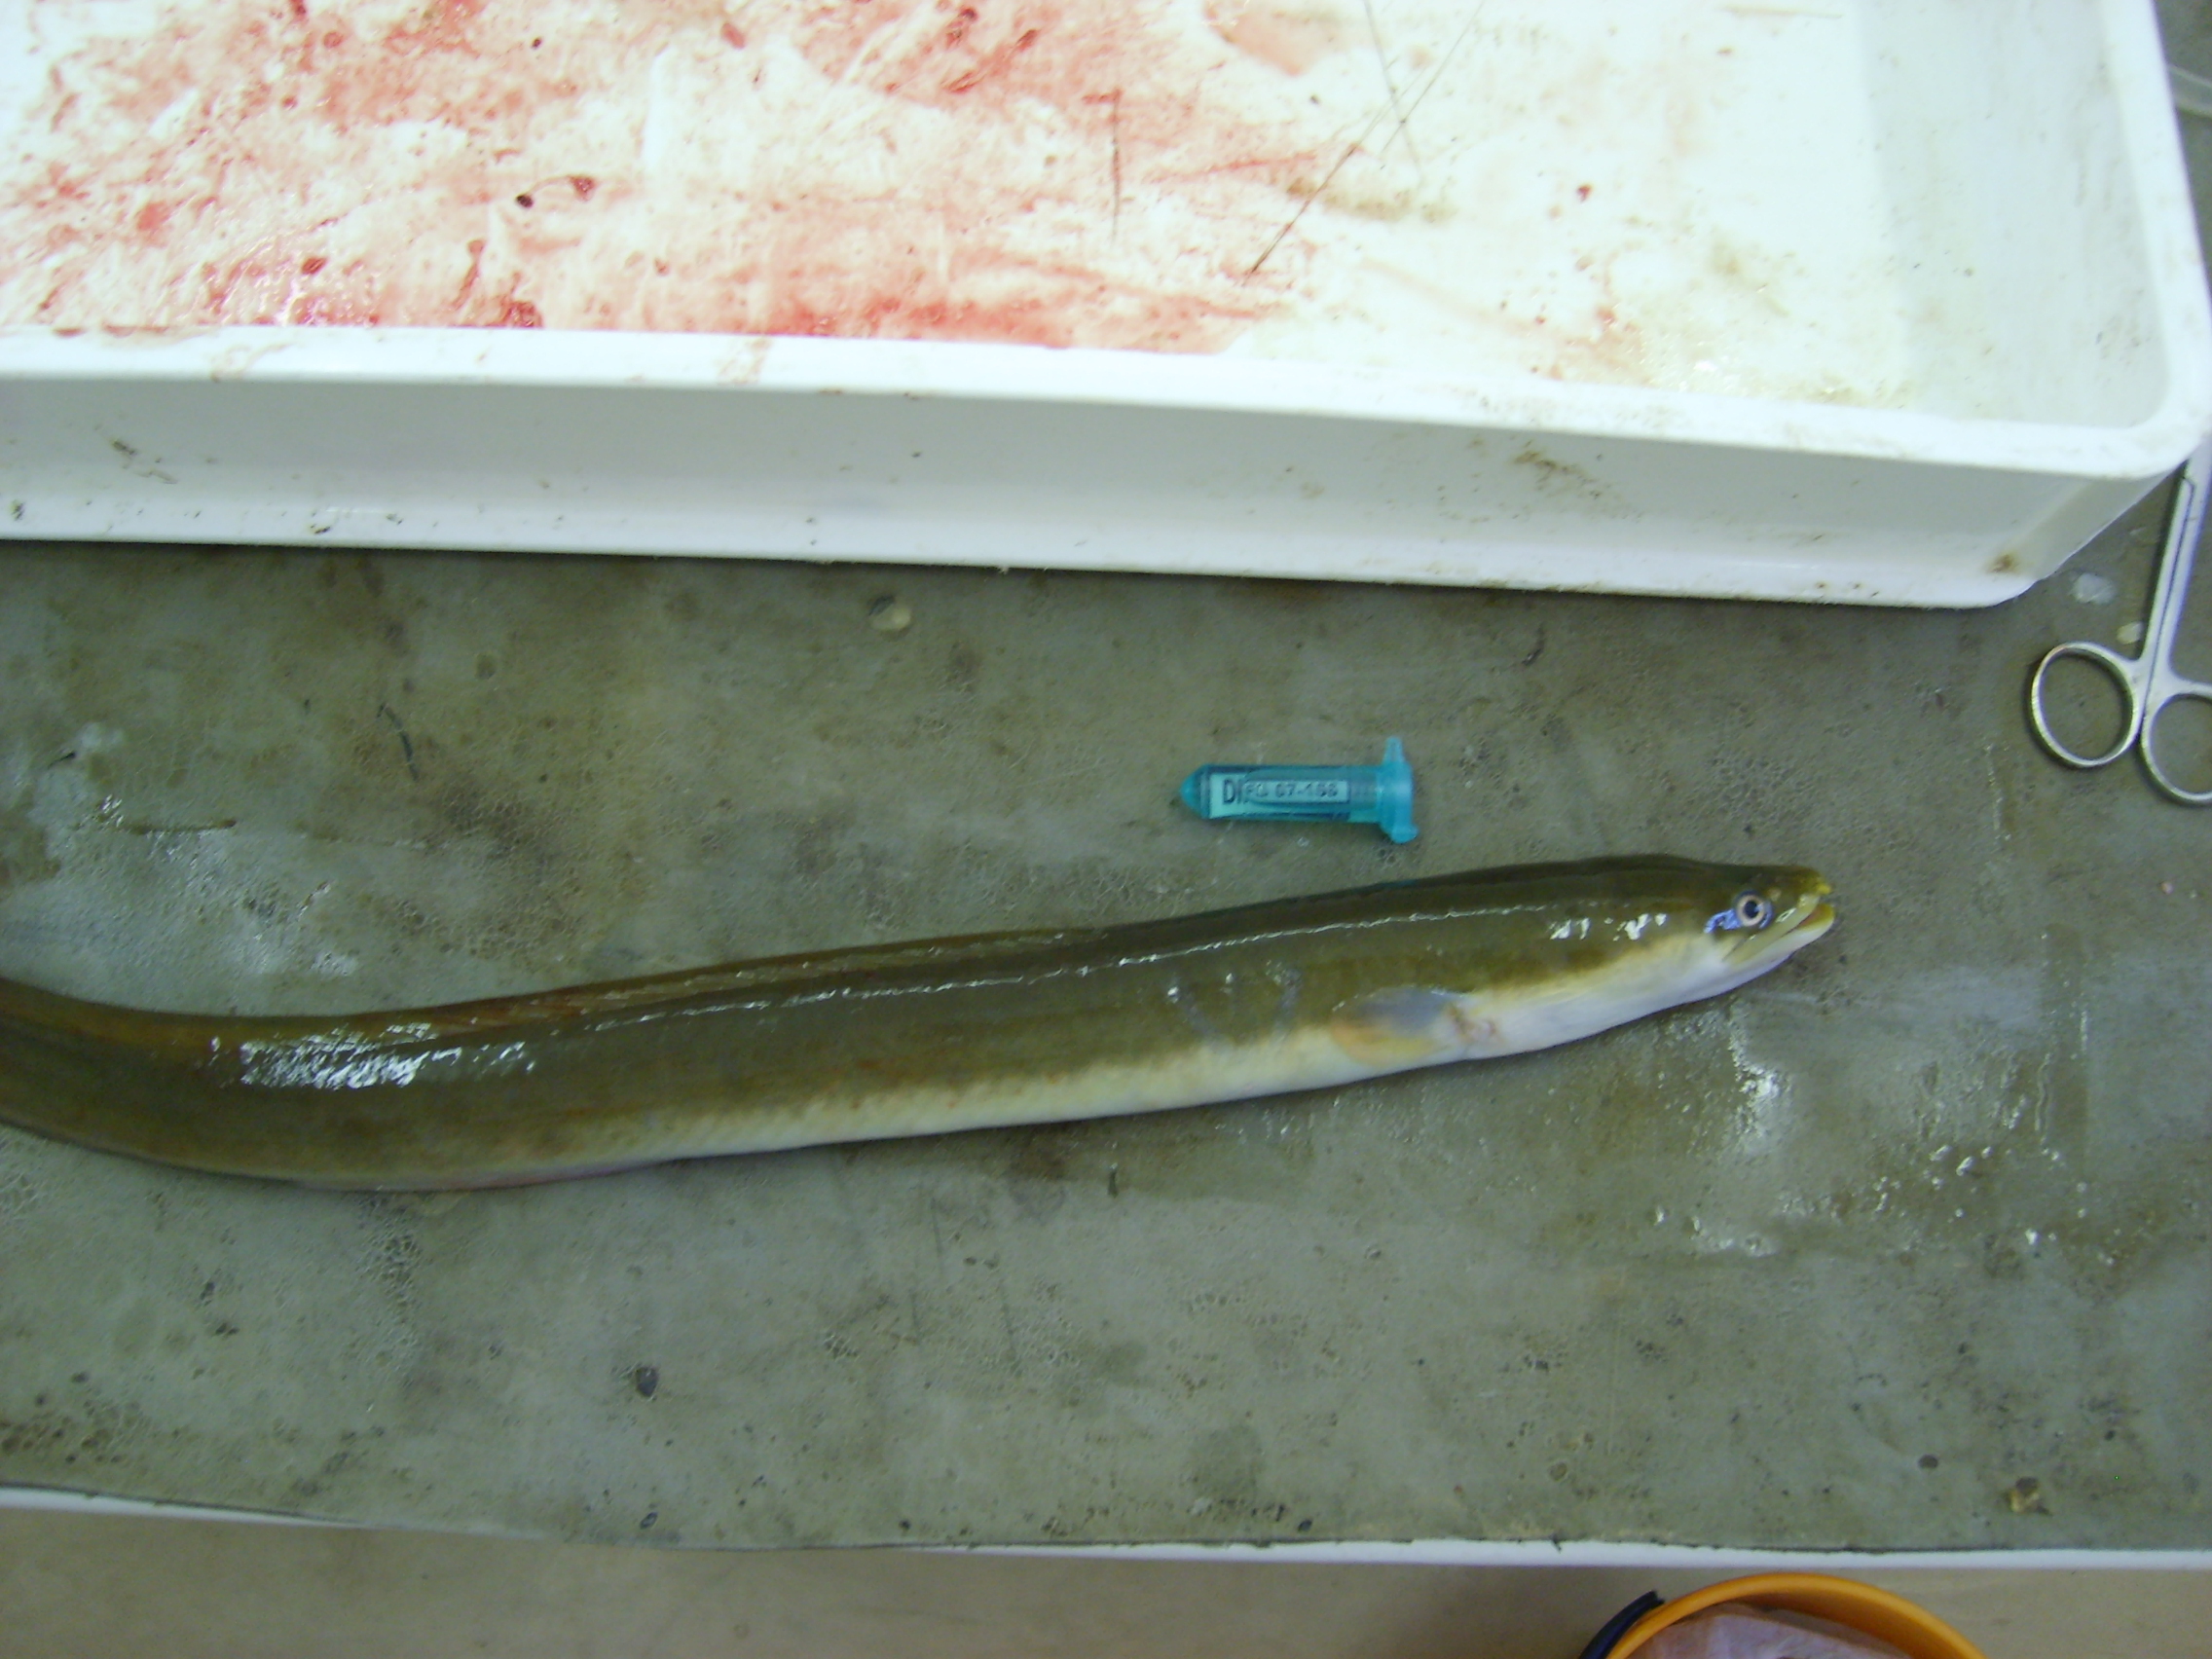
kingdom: Animalia
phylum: Chordata
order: Anguilliformes
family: Anguillidae
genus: Anguilla
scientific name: Anguilla mossambica
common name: African longfin eel
